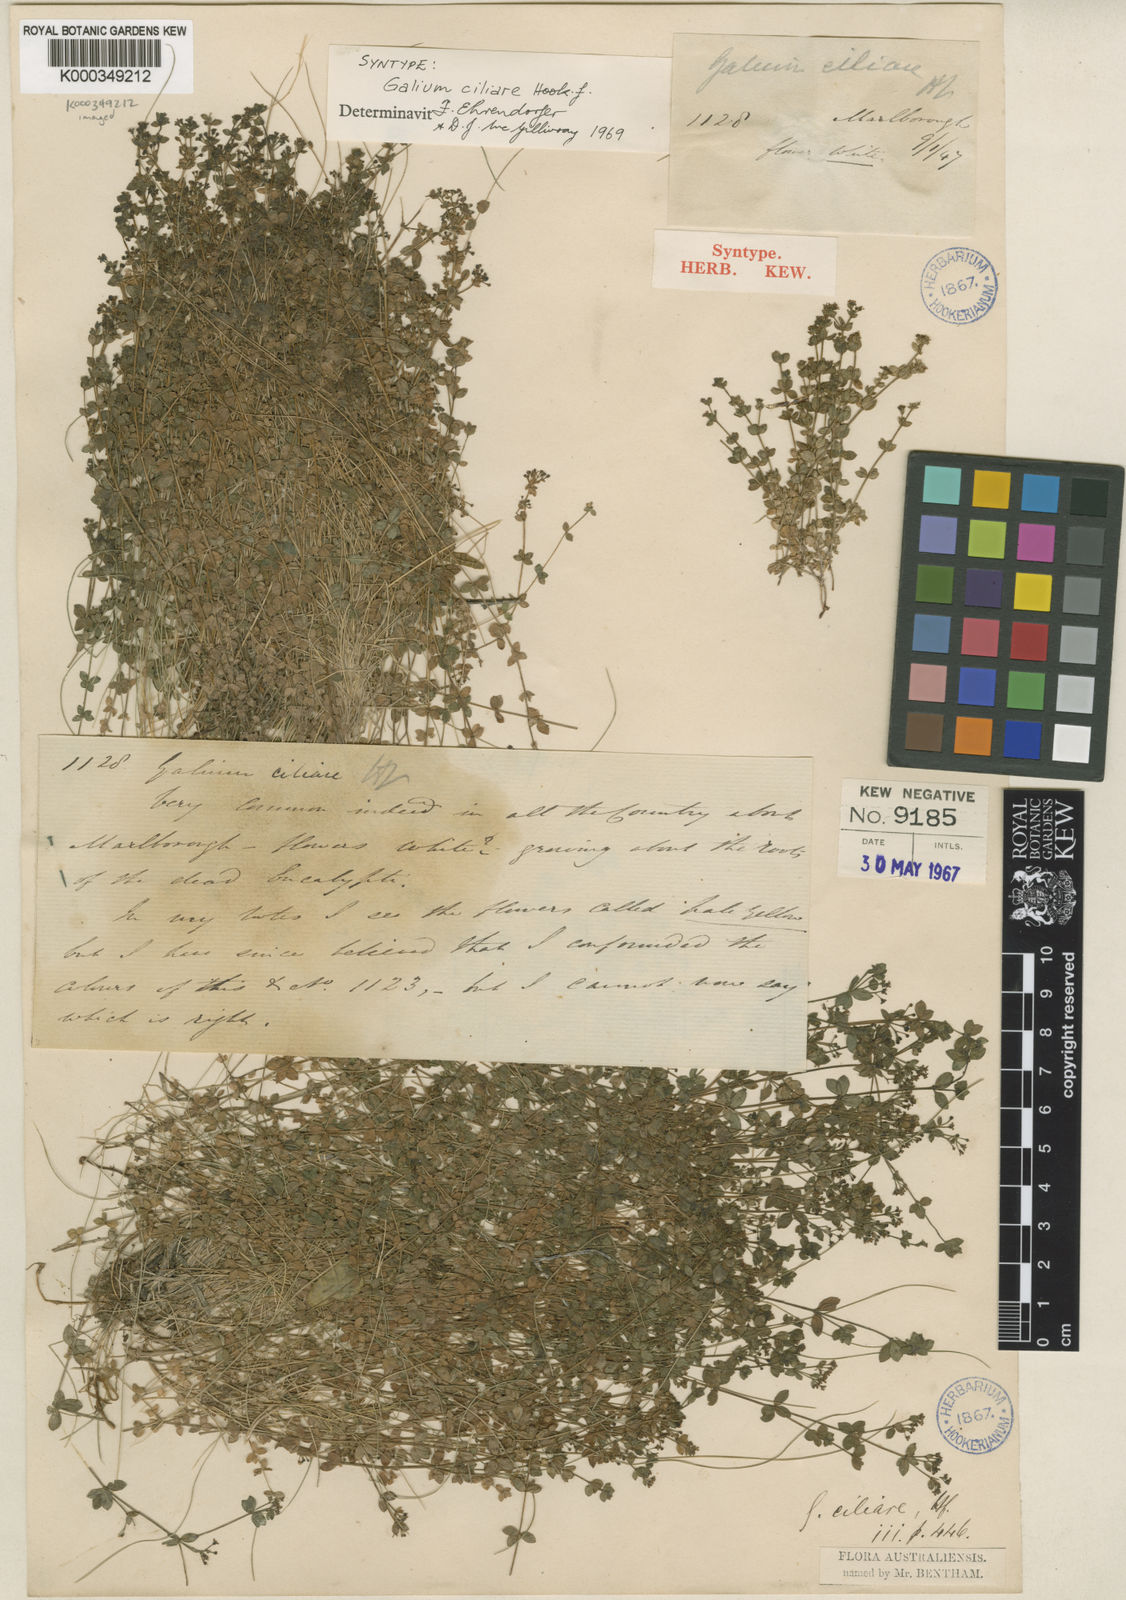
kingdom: Plantae
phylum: Tracheophyta
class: Magnoliopsida
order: Gentianales
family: Rubiaceae
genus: Galium
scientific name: Galium ciliare
